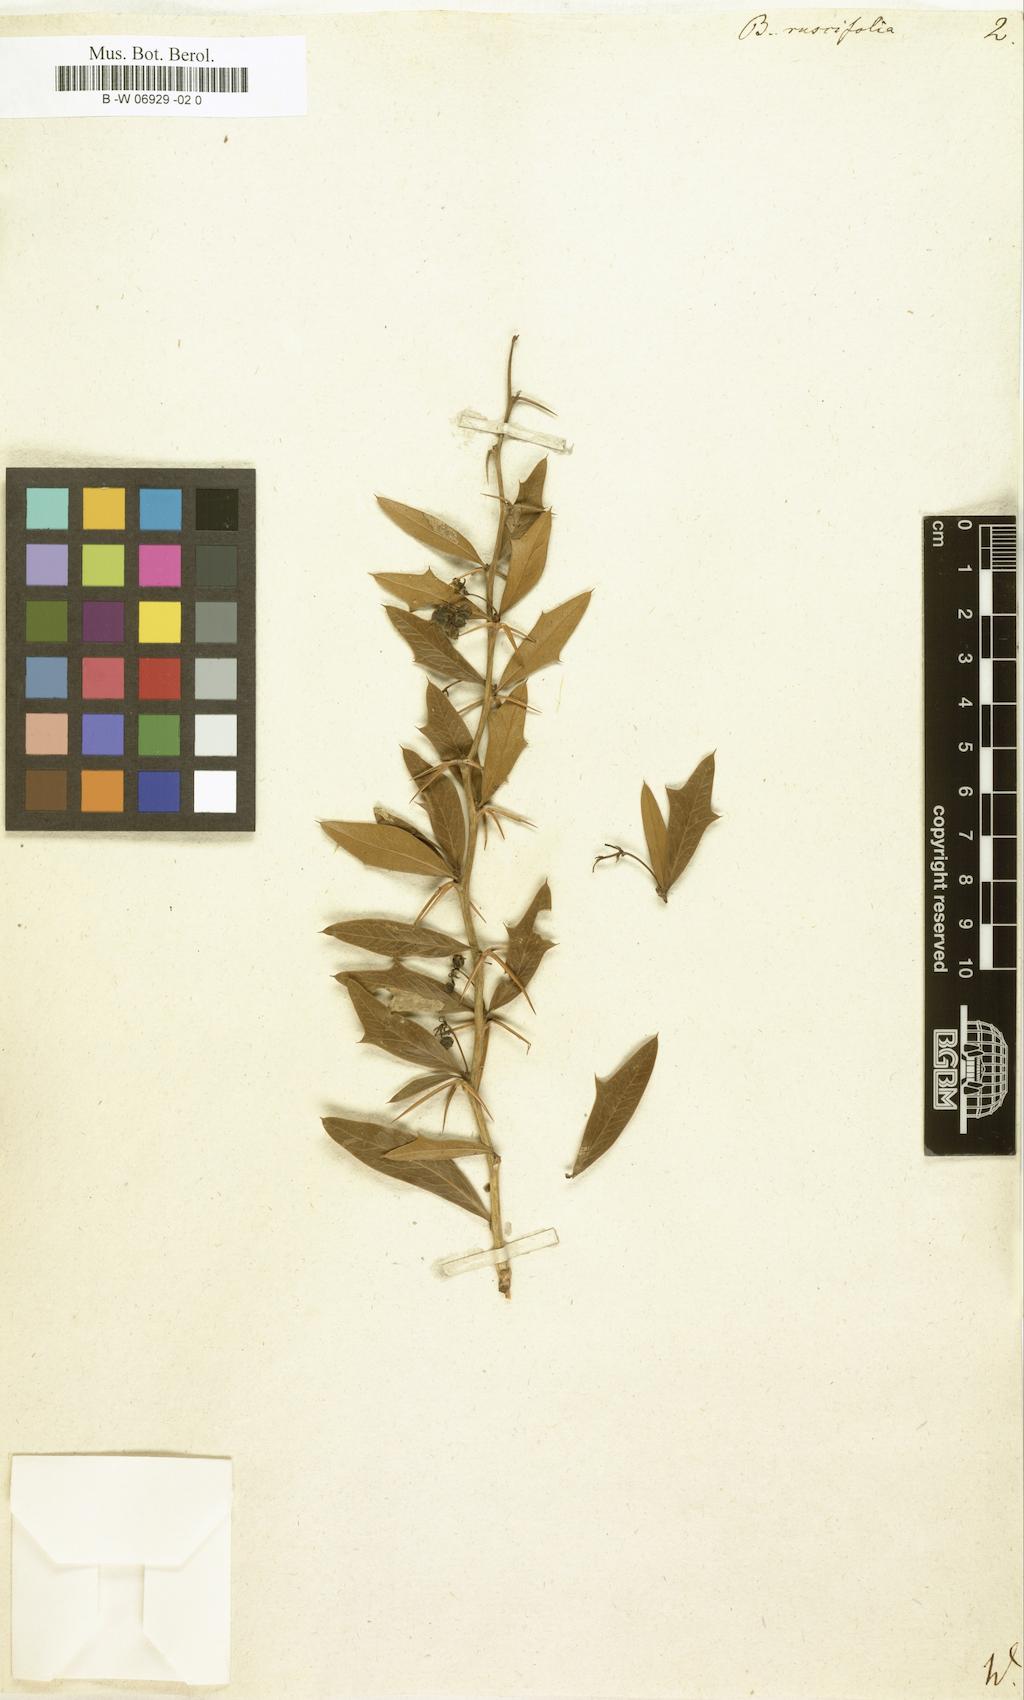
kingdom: Plantae
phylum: Tracheophyta
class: Magnoliopsida
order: Ranunculales
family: Berberidaceae
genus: Berberis
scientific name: Berberis ruscifolia
